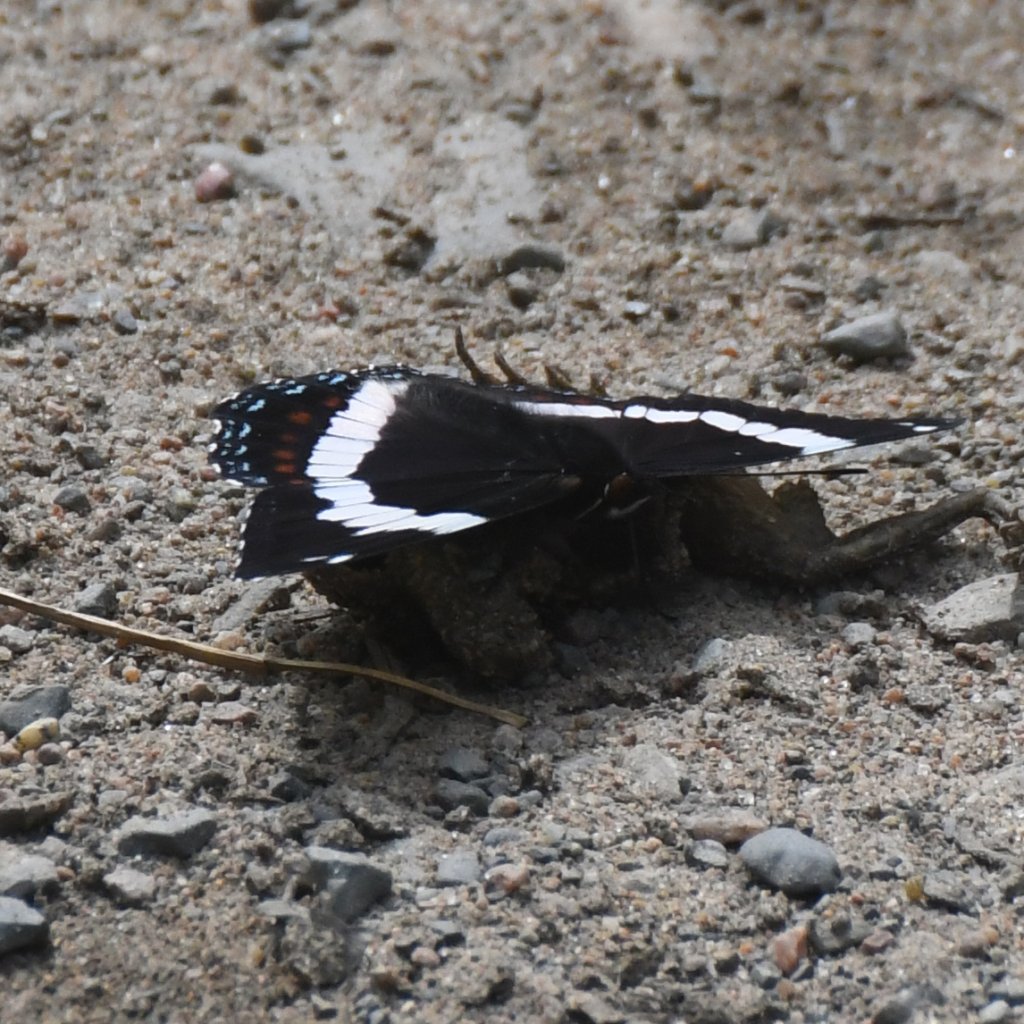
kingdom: Animalia
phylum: Arthropoda
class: Insecta
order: Lepidoptera
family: Nymphalidae
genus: Limenitis
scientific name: Limenitis arthemis
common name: Red-spotted Admiral
